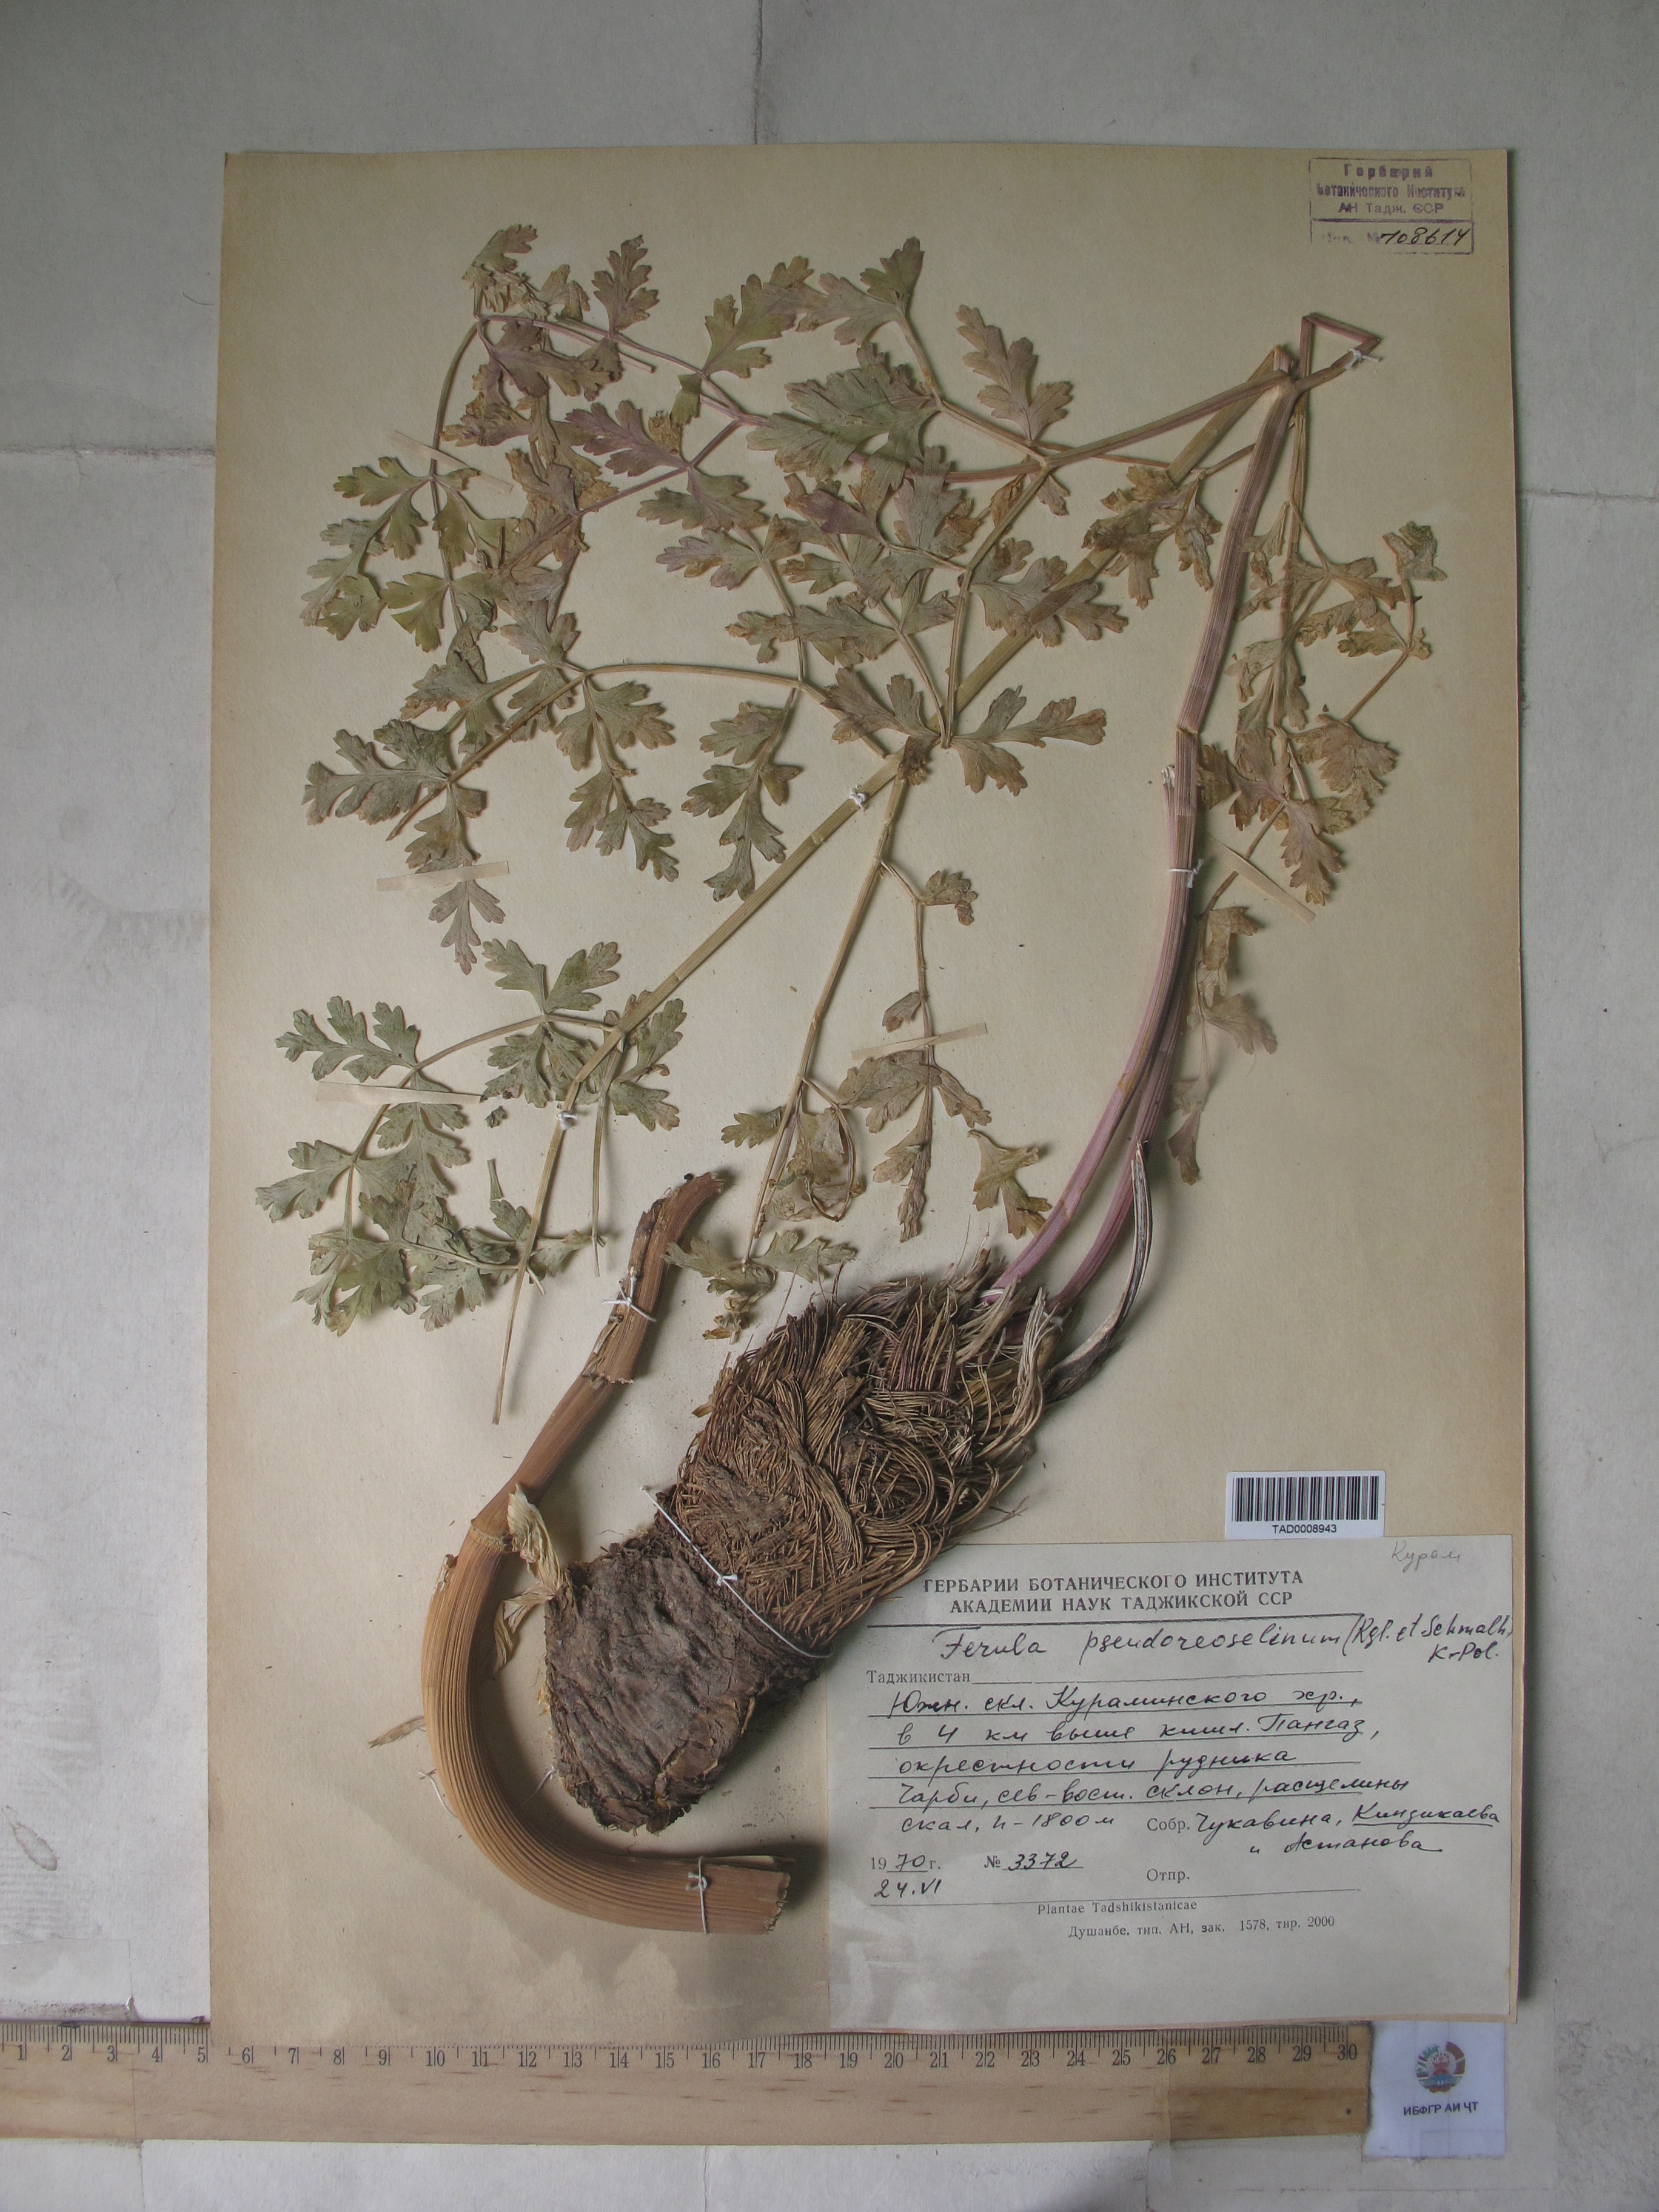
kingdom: Plantae
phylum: Tracheophyta
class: Magnoliopsida
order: Apiales
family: Apiaceae
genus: Ferula
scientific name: Ferula kirialovii
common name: Kumot
